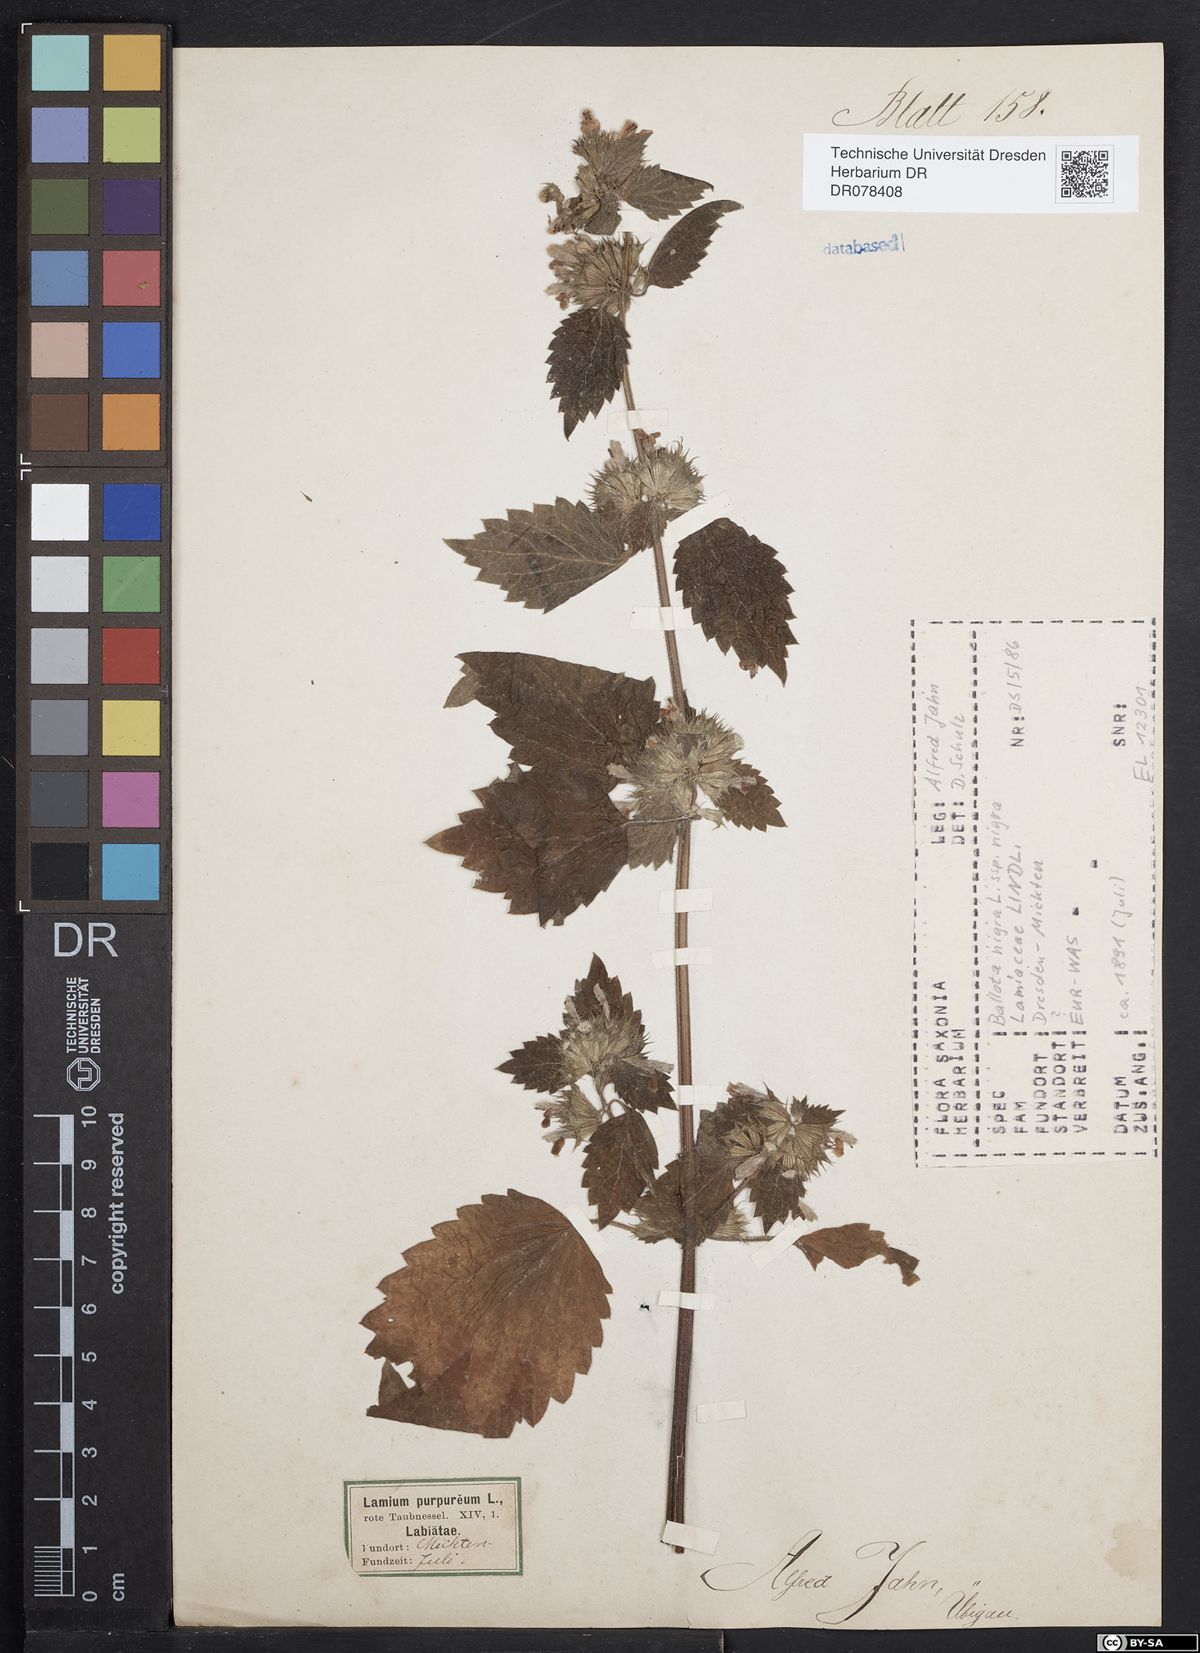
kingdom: Plantae
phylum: Tracheophyta
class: Magnoliopsida
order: Lamiales
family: Lamiaceae
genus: Ballota
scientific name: Ballota nigra
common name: Black horehound
